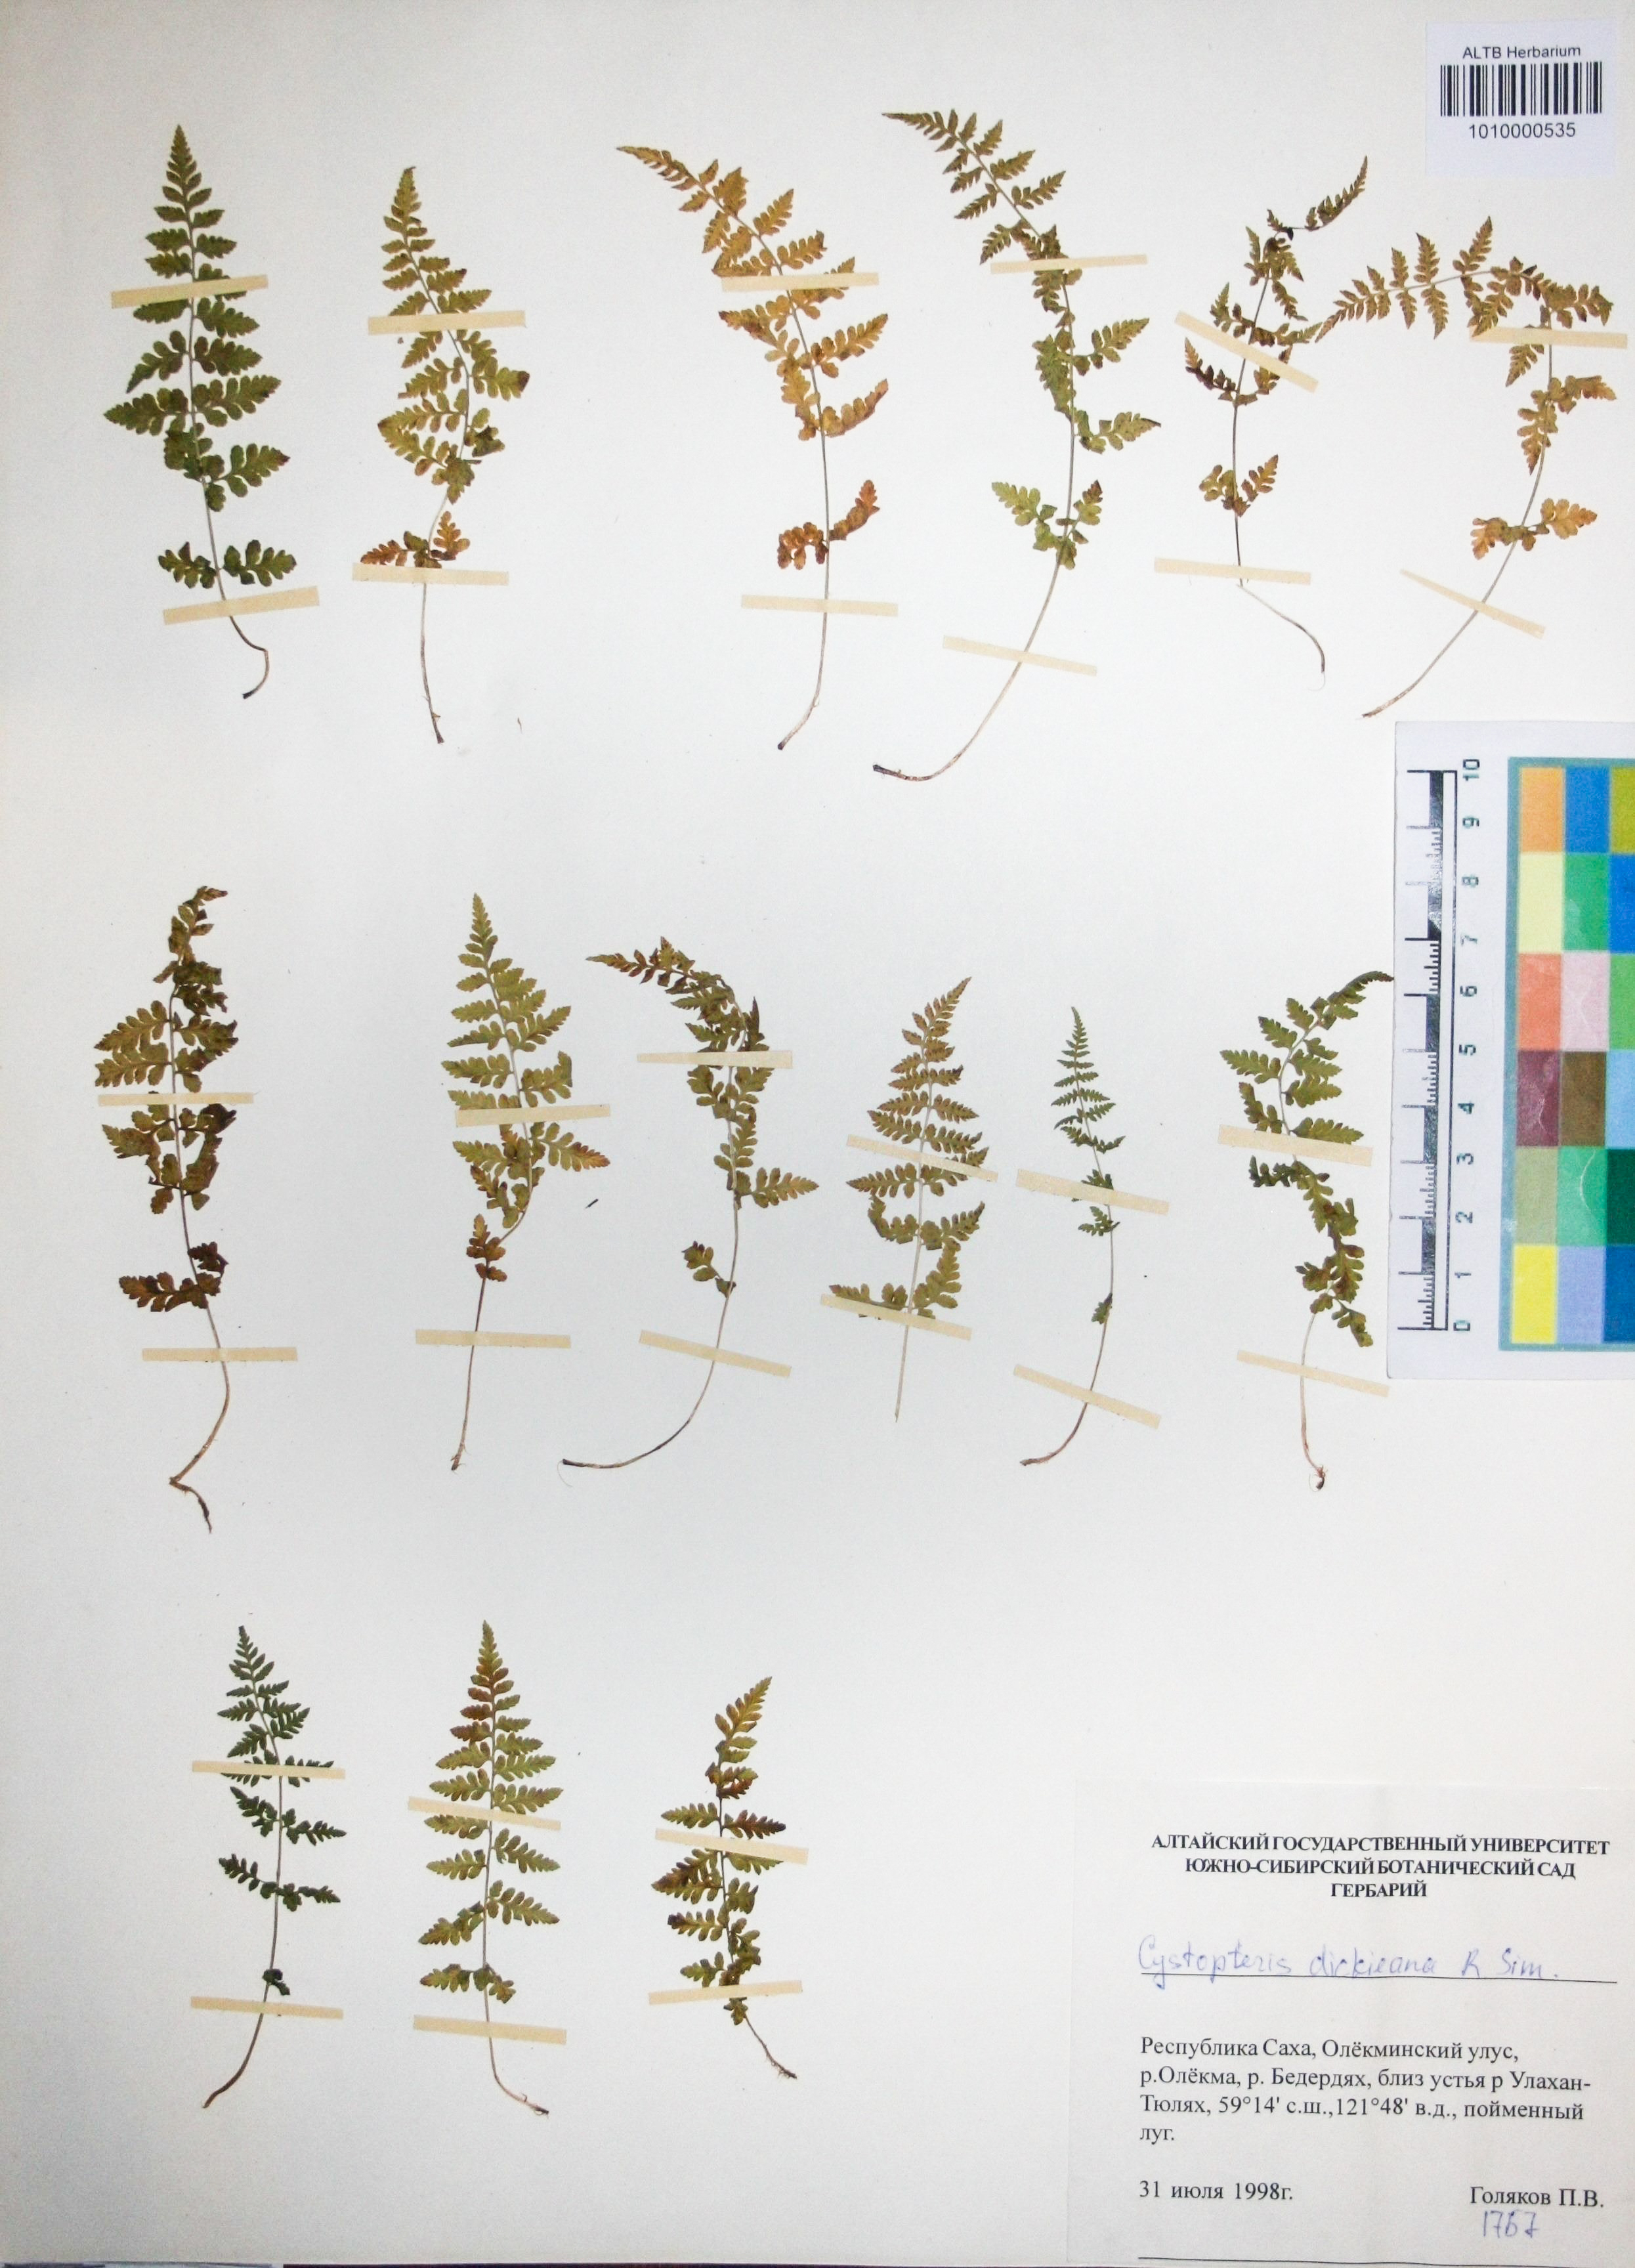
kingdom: Plantae
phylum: Tracheophyta
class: Polypodiopsida
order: Polypodiales
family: Cystopteridaceae
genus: Cystopteris
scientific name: Cystopteris dickieana
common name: Dickie's bladder-fern
